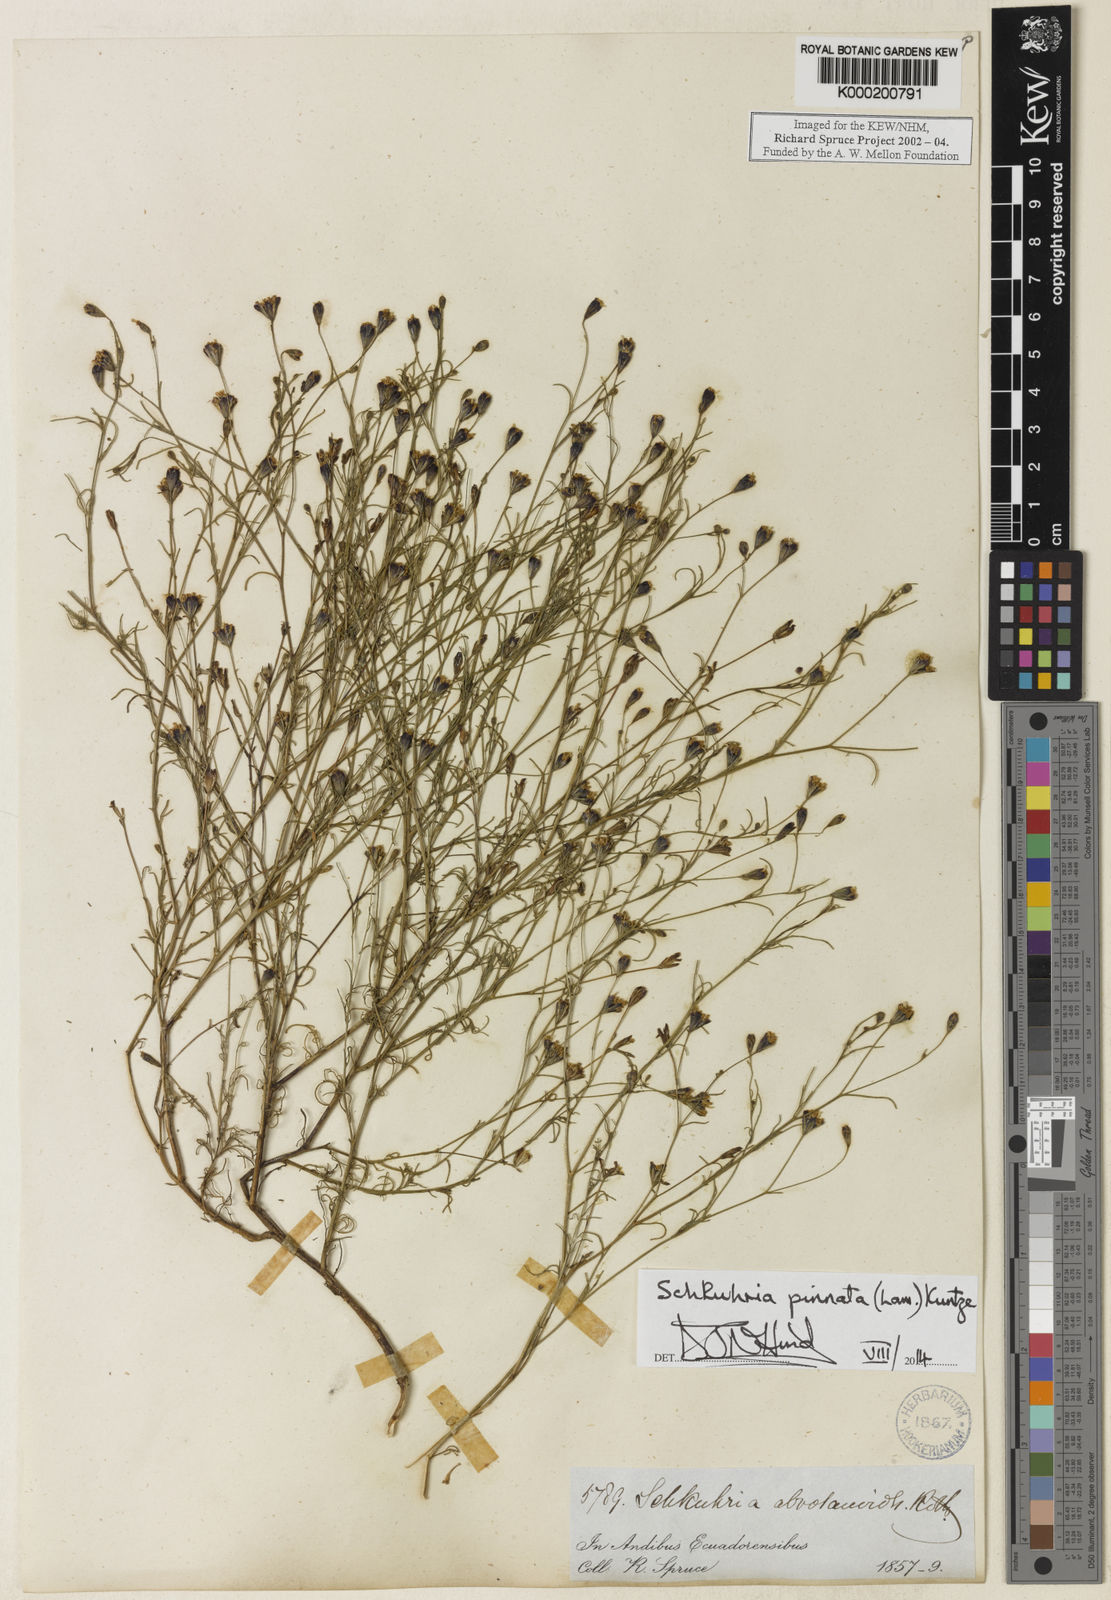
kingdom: Plantae
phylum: Tracheophyta
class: Magnoliopsida
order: Asterales
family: Asteraceae
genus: Schkuhria
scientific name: Schkuhria pinnata
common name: Dwarf marigold
